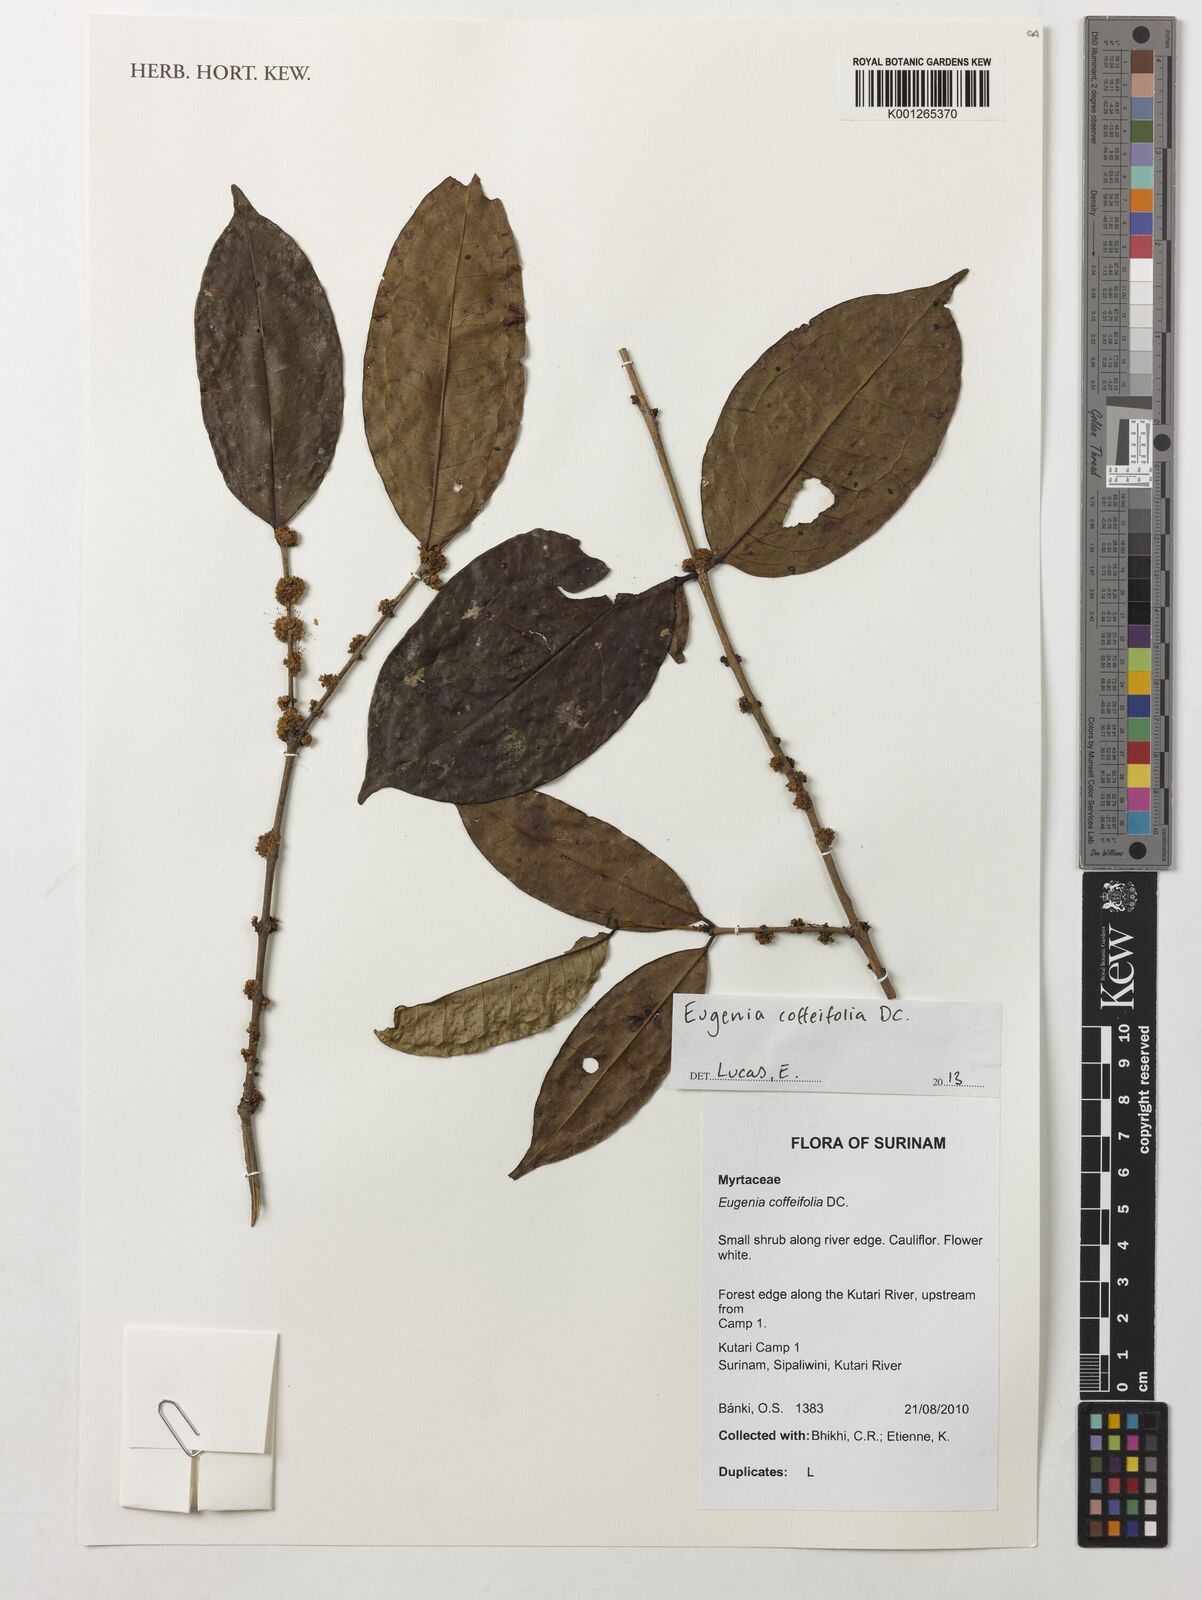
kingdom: Plantae
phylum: Tracheophyta
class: Magnoliopsida
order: Myrtales
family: Myrtaceae
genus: Eugenia
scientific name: Eugenia coffeifolia
